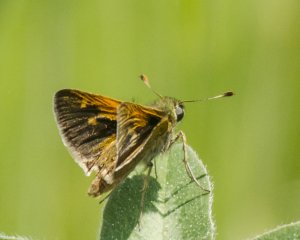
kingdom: Animalia
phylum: Arthropoda
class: Insecta
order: Lepidoptera
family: Hesperiidae
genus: Polites
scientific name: Polites themistocles
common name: Tawny-edged Skipper
